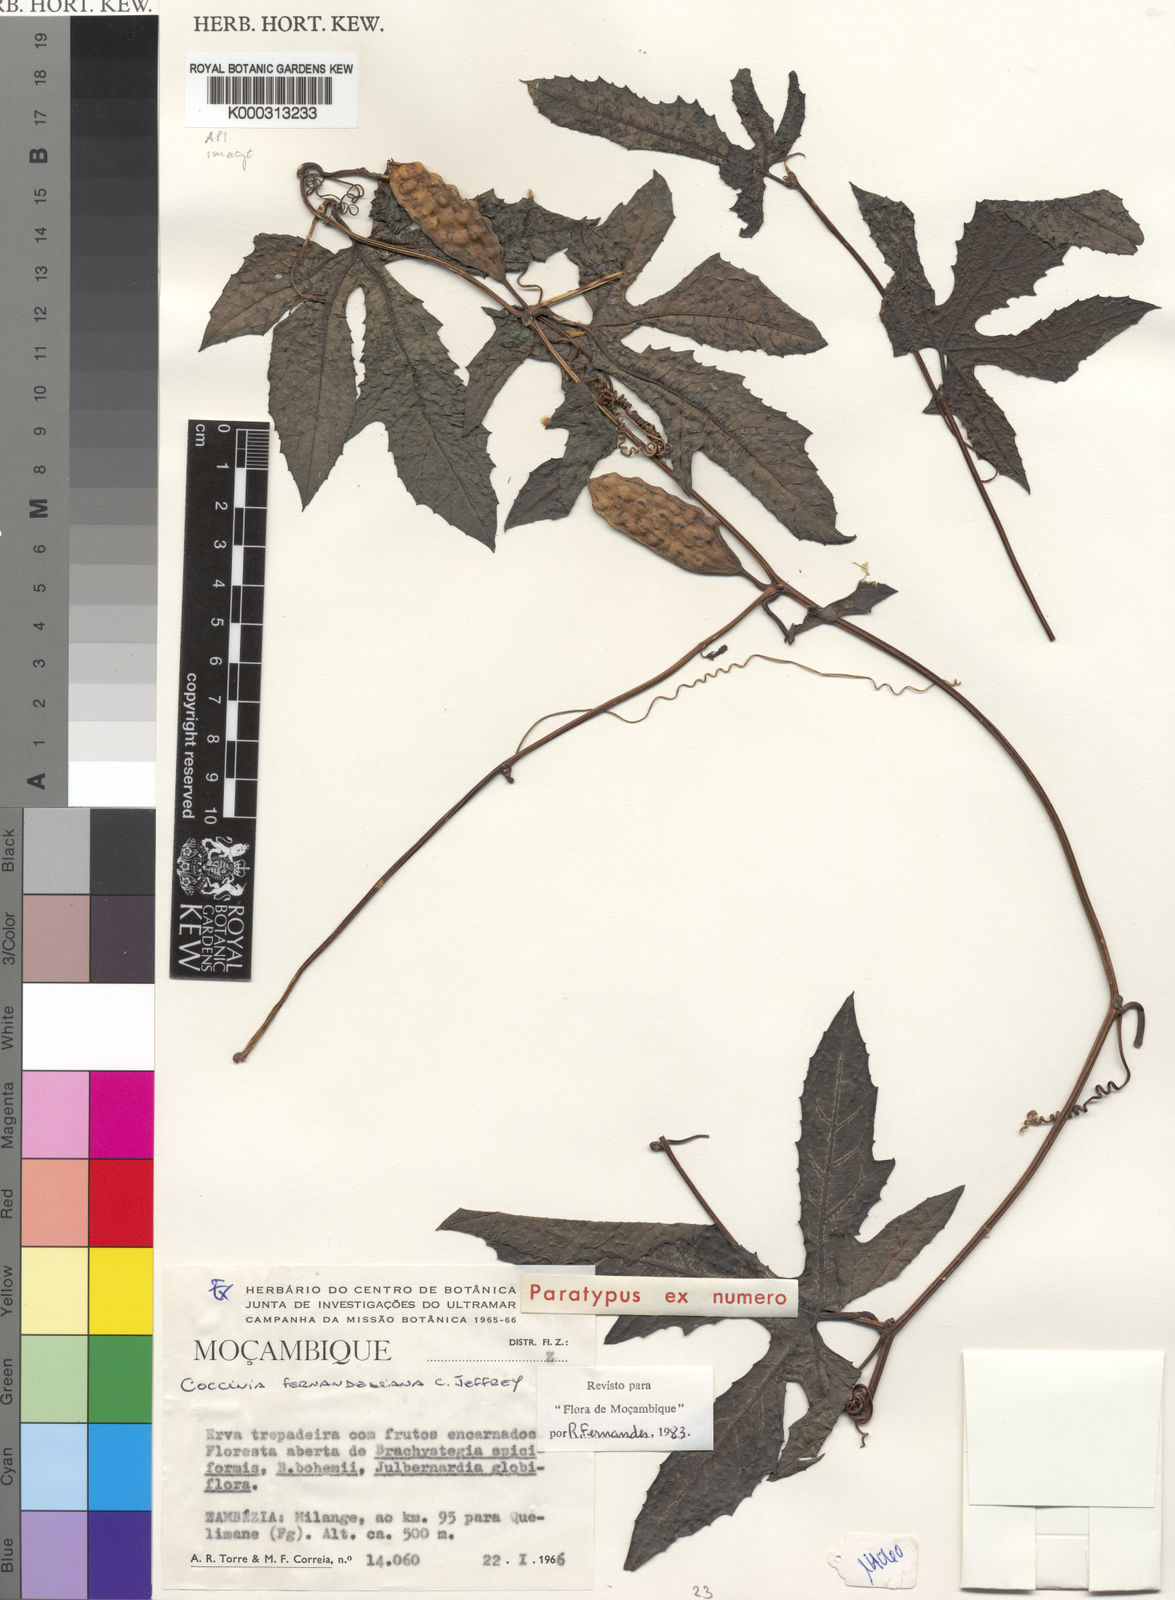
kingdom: Plantae
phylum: Tracheophyta
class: Magnoliopsida
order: Cucurbitales
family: Cucurbitaceae
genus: Coccinia
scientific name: Coccinia fernandesiana
